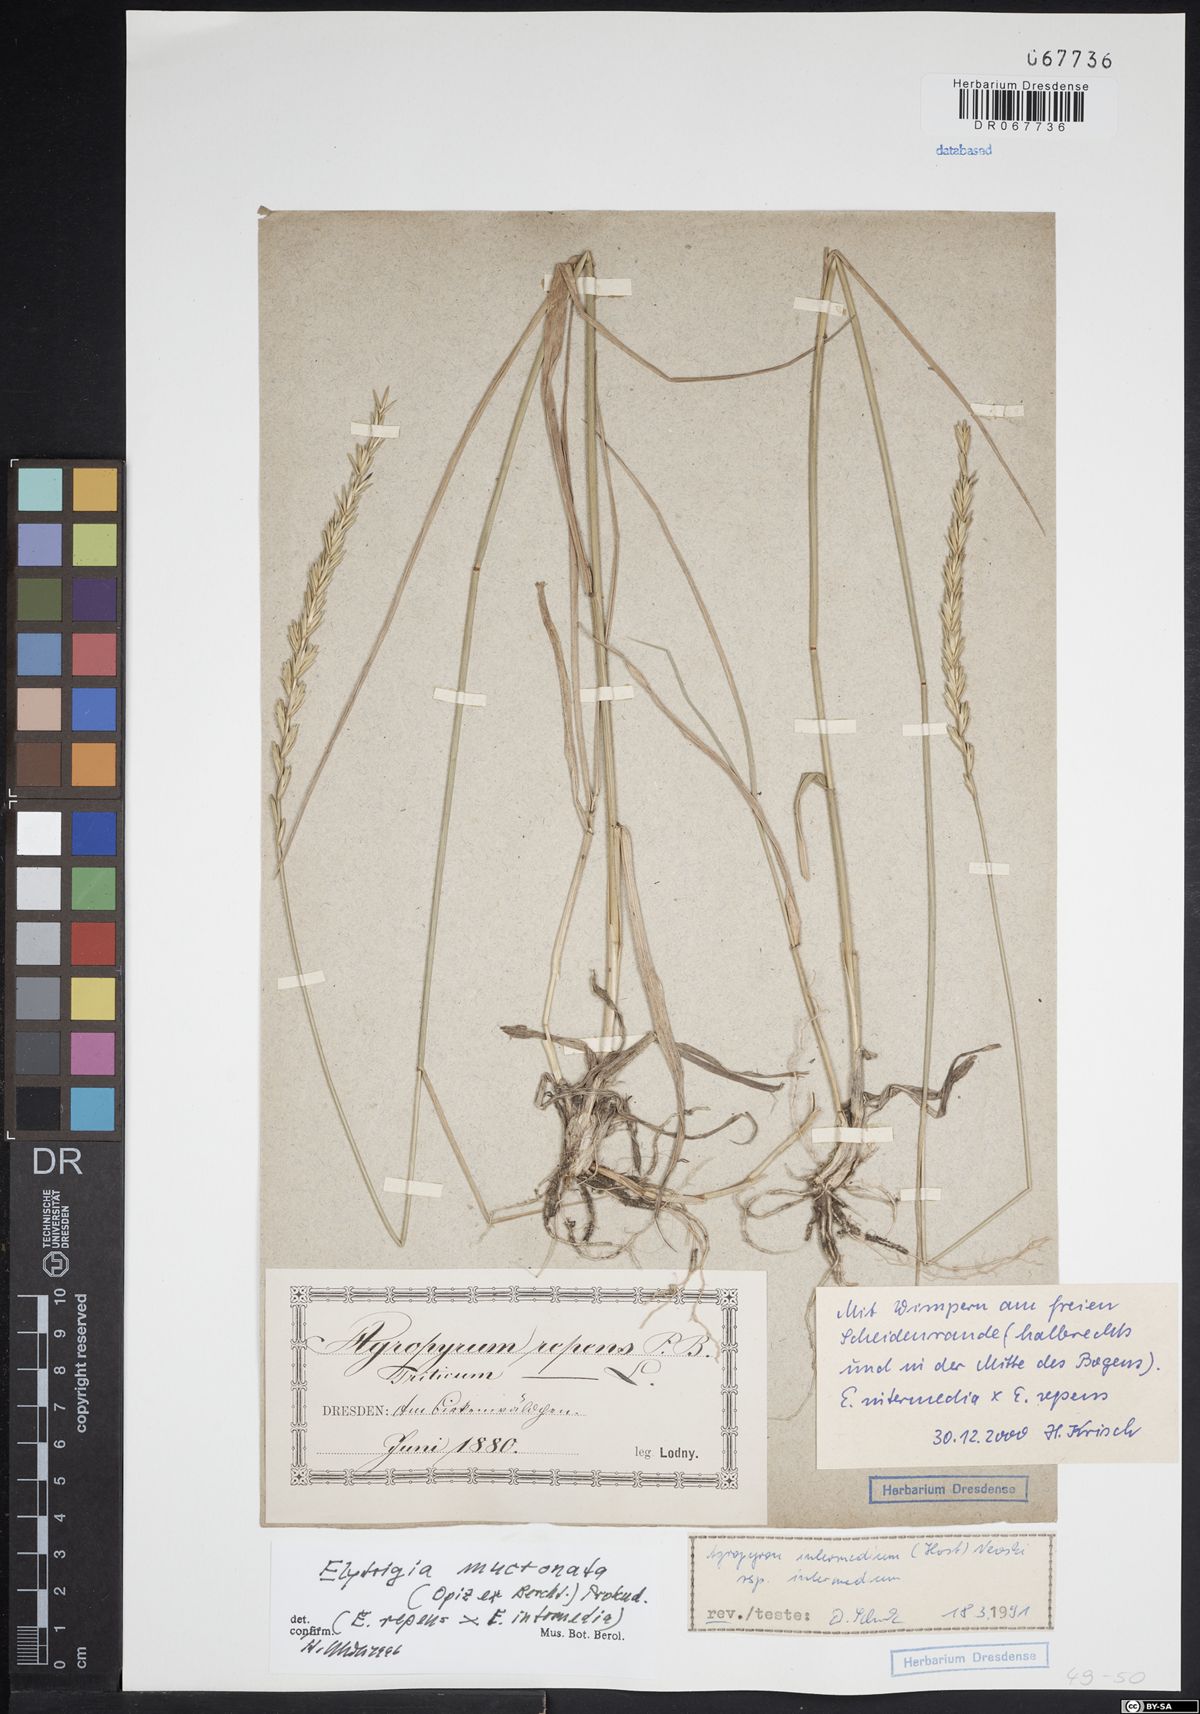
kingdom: Plantae
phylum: Tracheophyta
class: Liliopsida
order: Poales
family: Poaceae
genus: Thinoelymus
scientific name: Thinoelymus mucronatus
